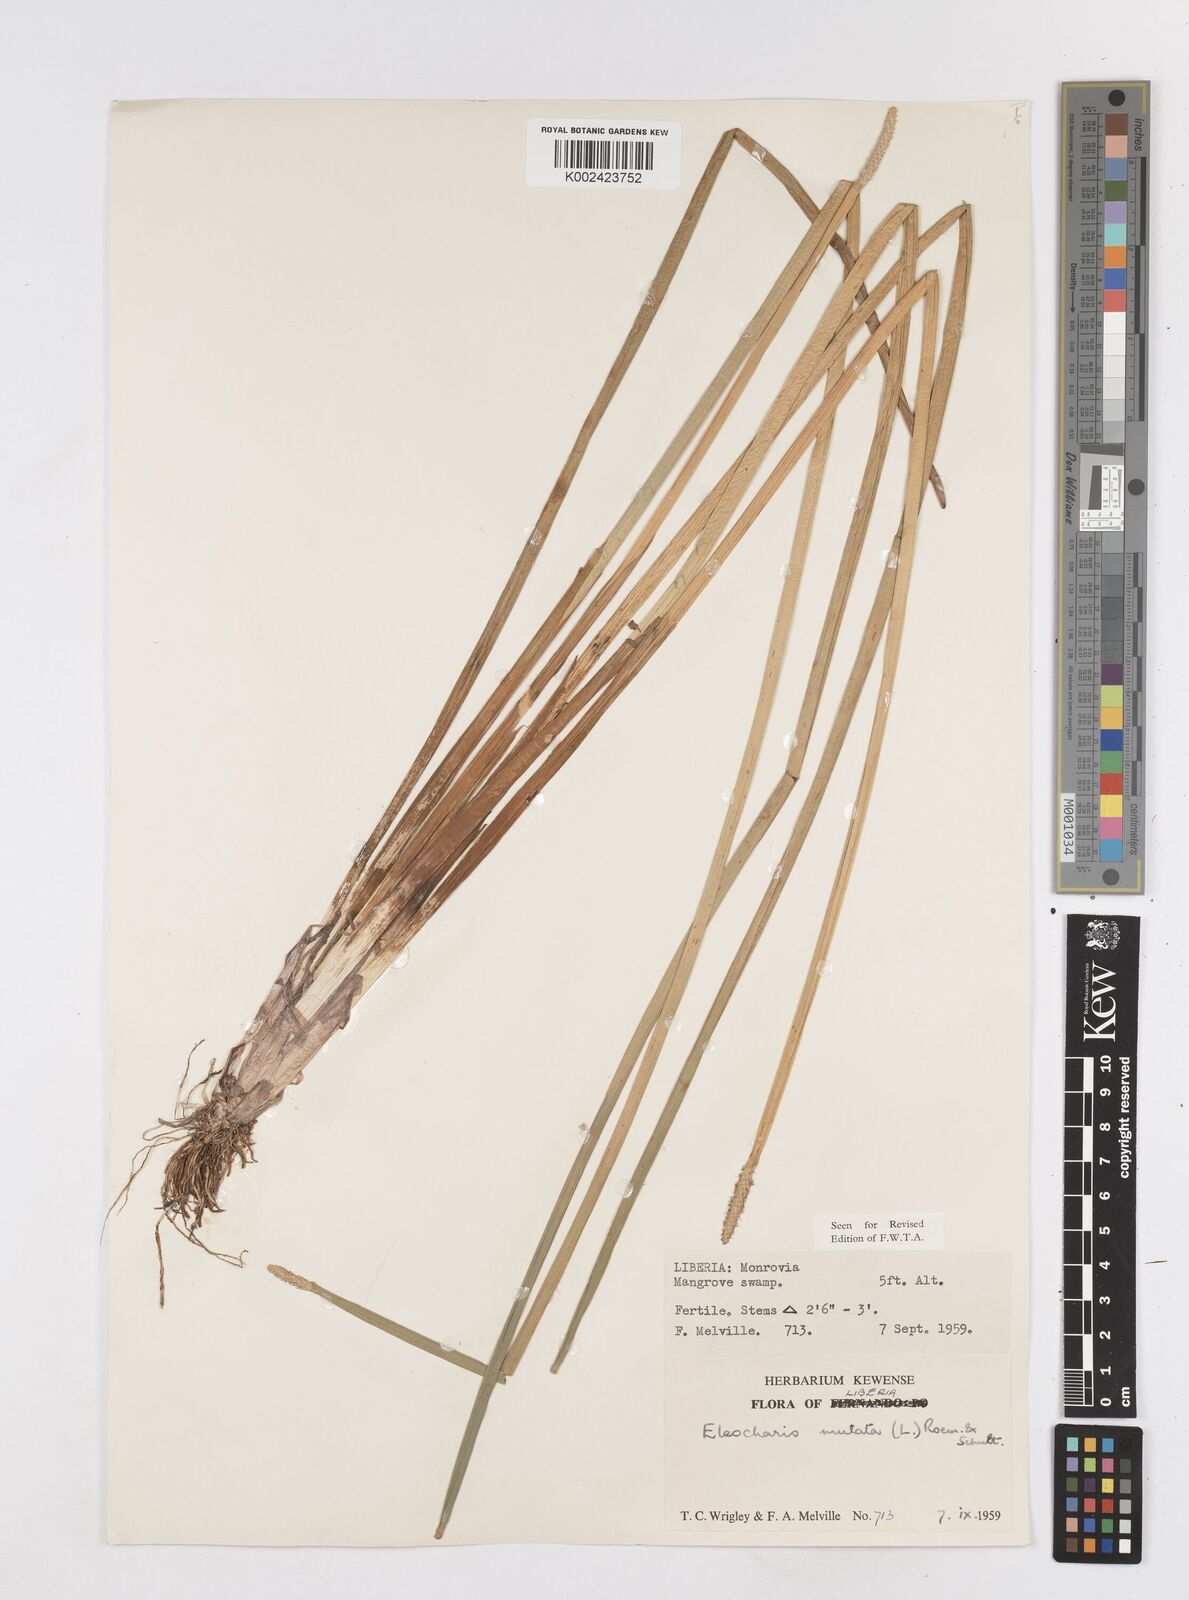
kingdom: Plantae
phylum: Tracheophyta
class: Liliopsida
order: Poales
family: Cyperaceae
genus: Eleocharis
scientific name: Eleocharis mutata
